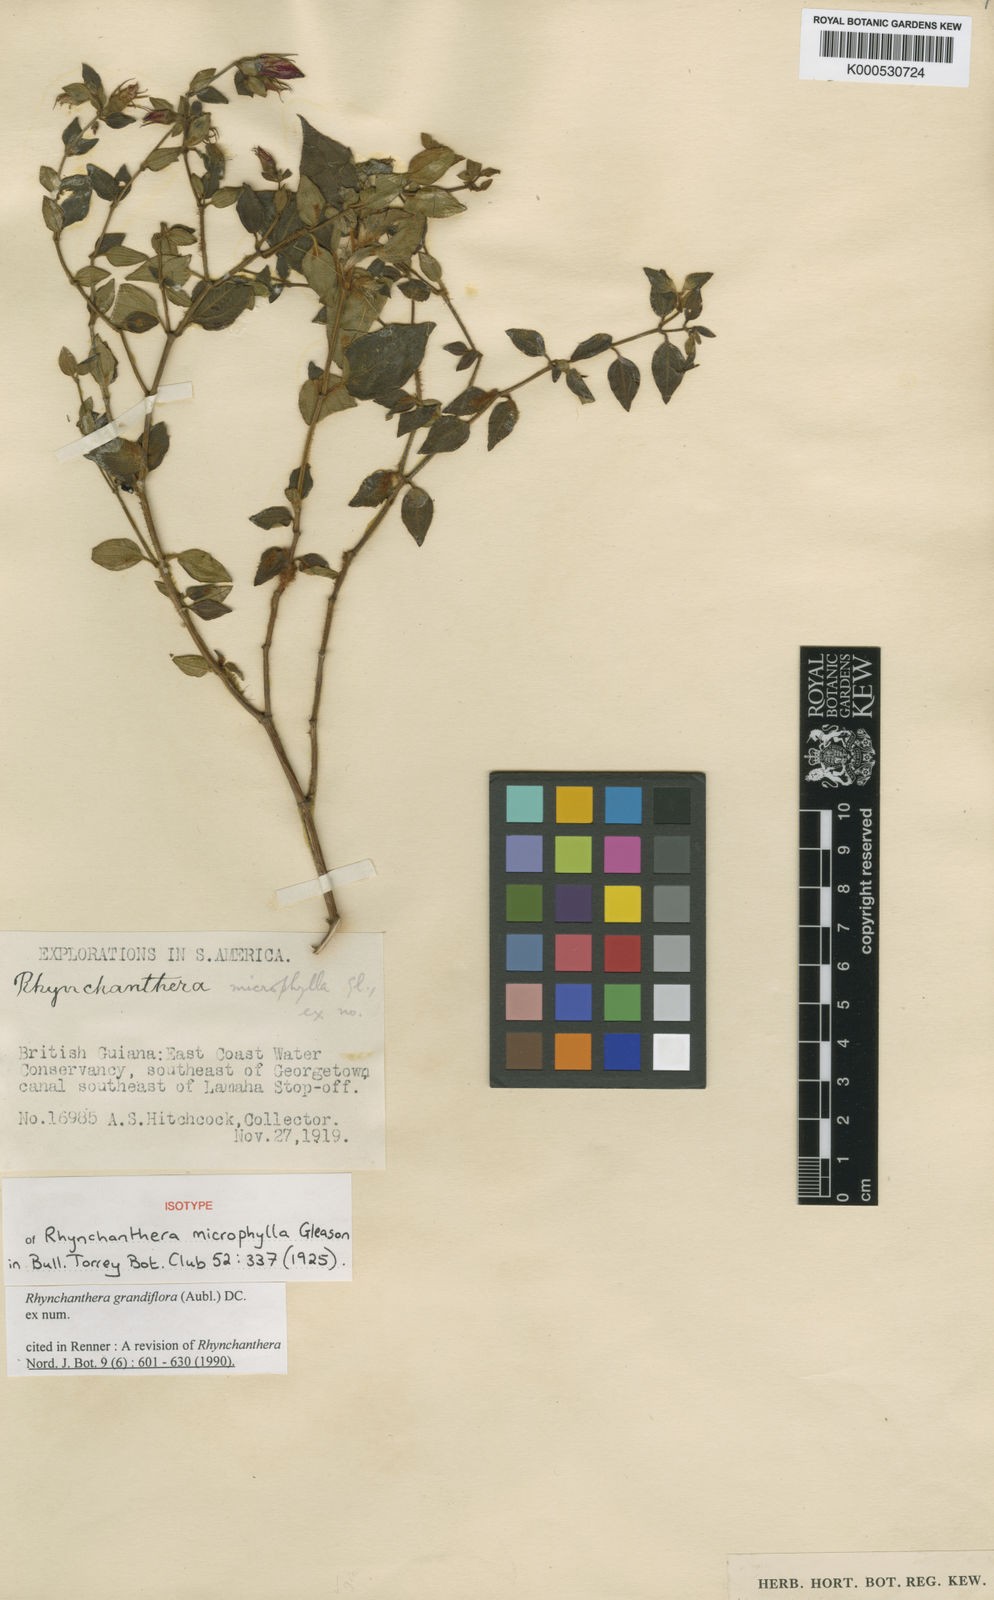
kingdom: Plantae
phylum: Tracheophyta
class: Magnoliopsida
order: Myrtales
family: Melastomataceae
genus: Rhynchanthera
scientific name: Rhynchanthera grandiflora
